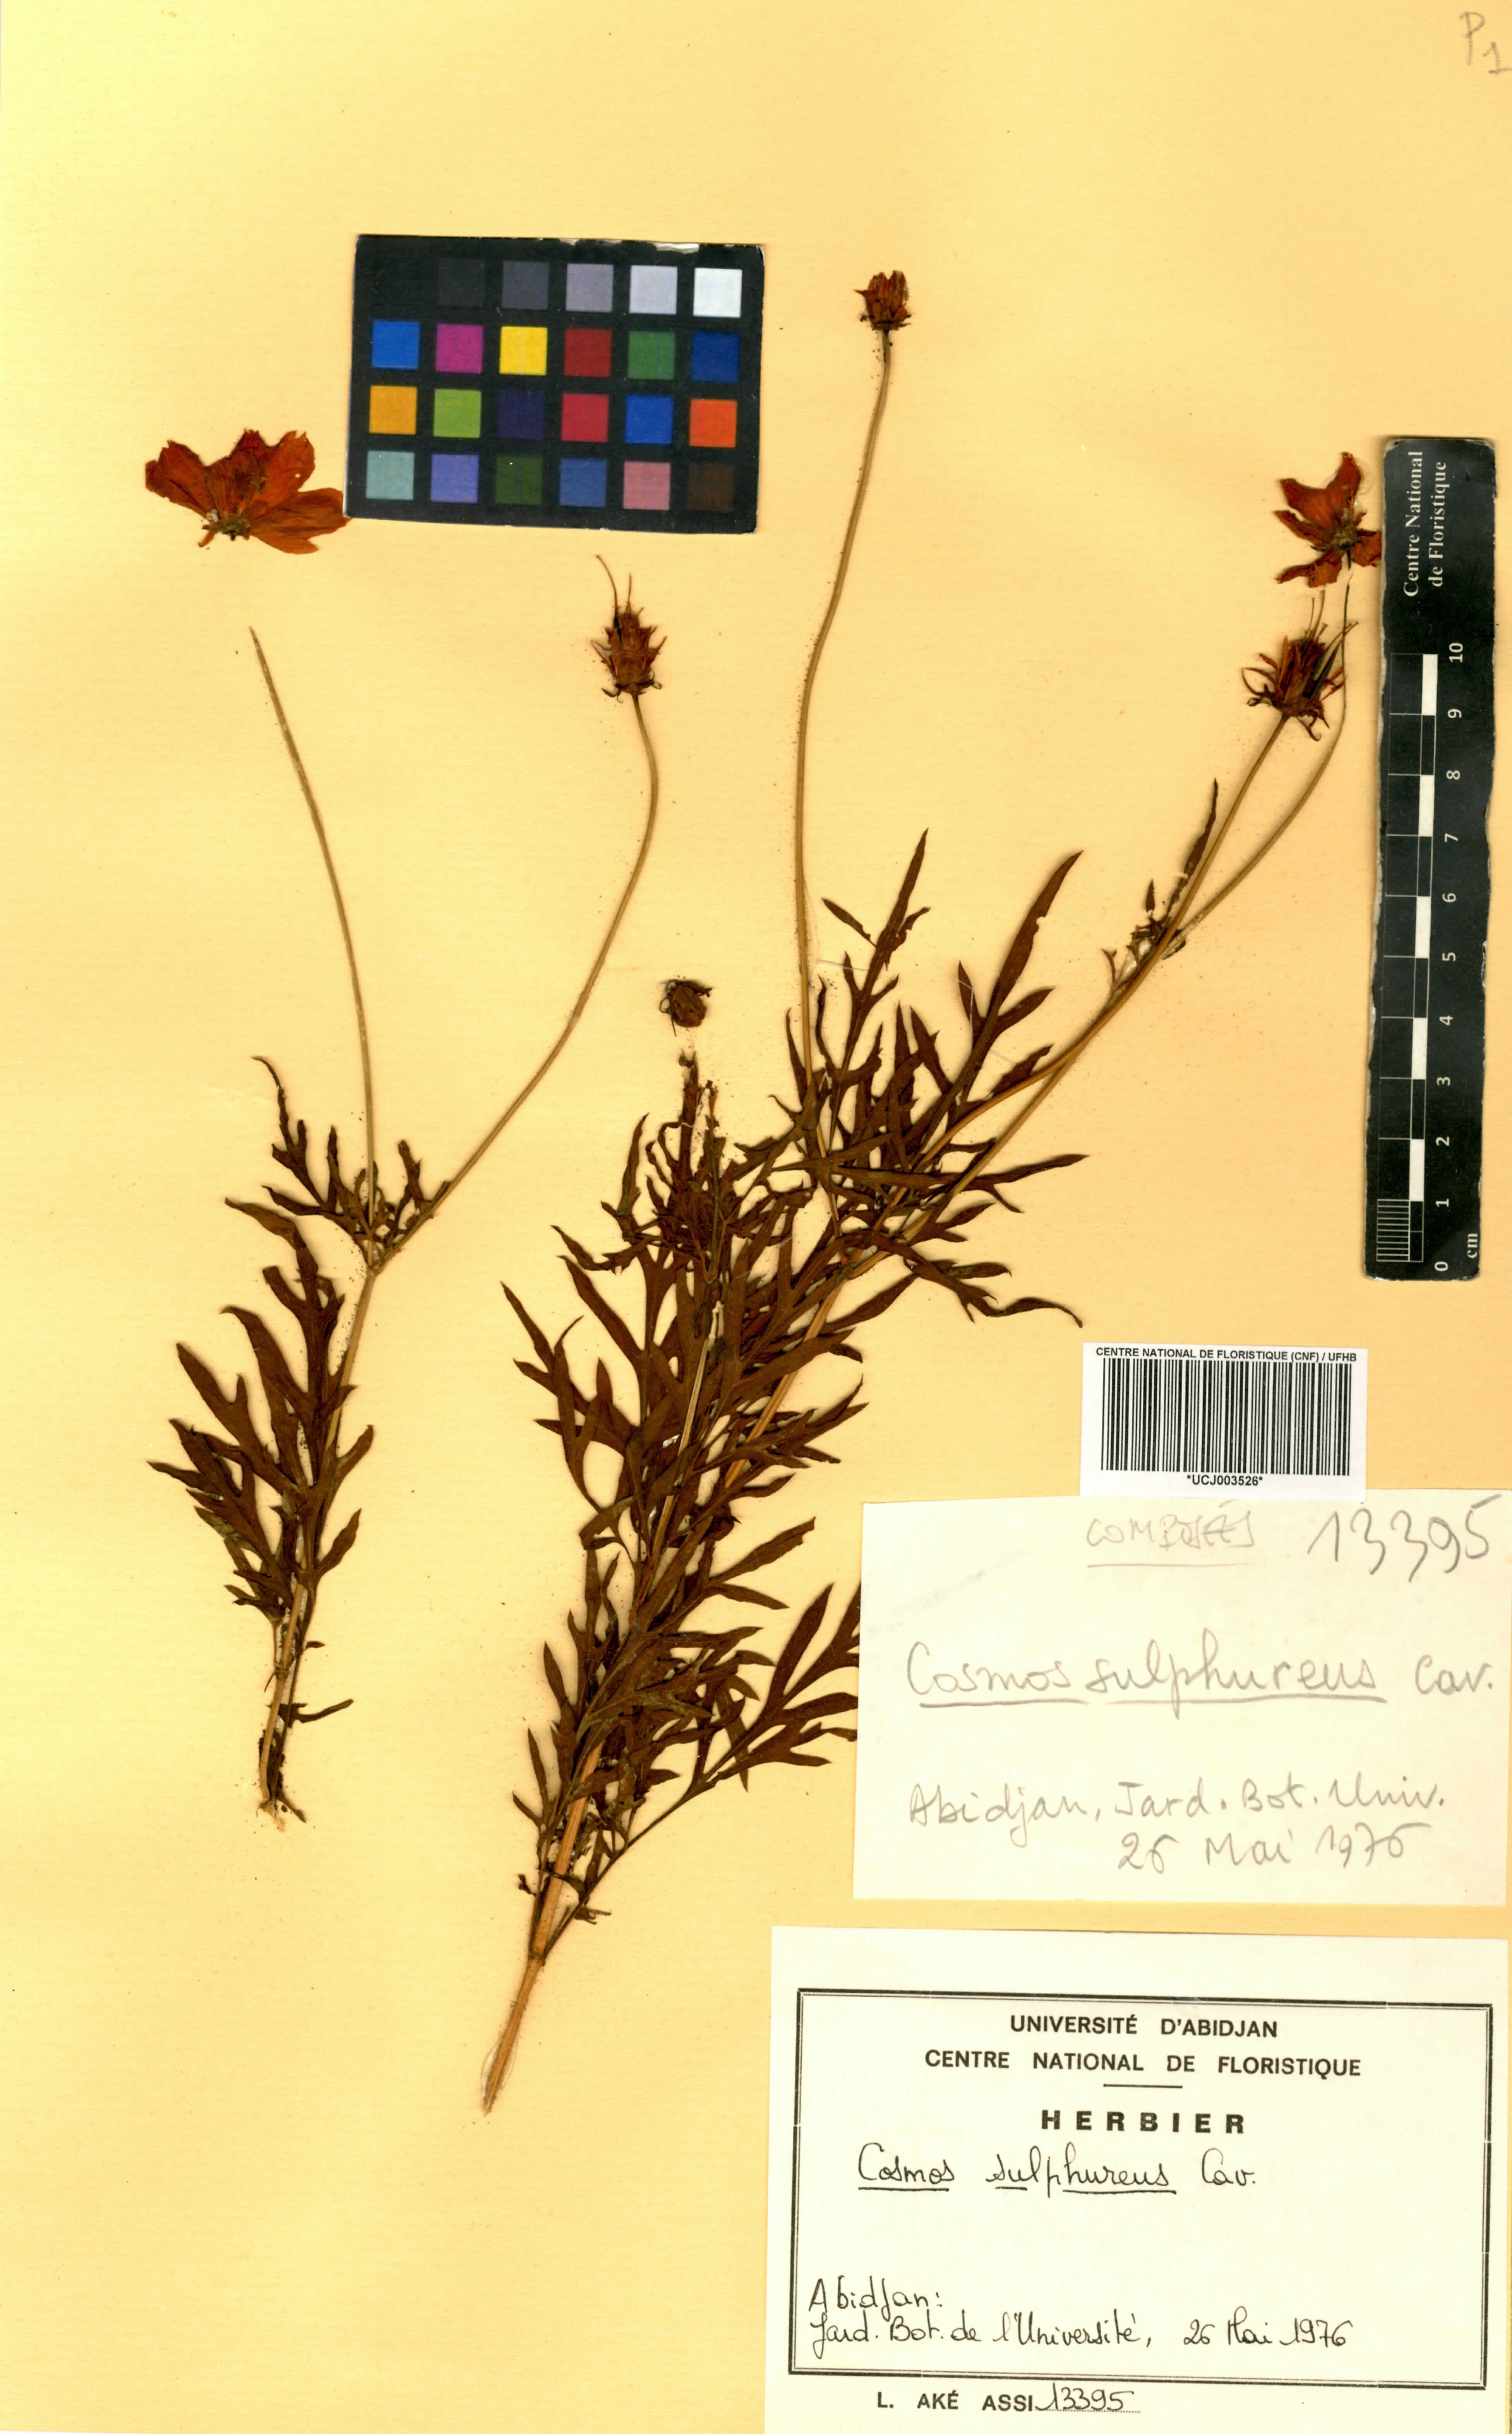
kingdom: Plantae
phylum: Tracheophyta
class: Magnoliopsida
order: Asterales
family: Asteraceae
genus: Cosmos
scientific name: Cosmos sulphureus
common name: Sulphur cosmos
